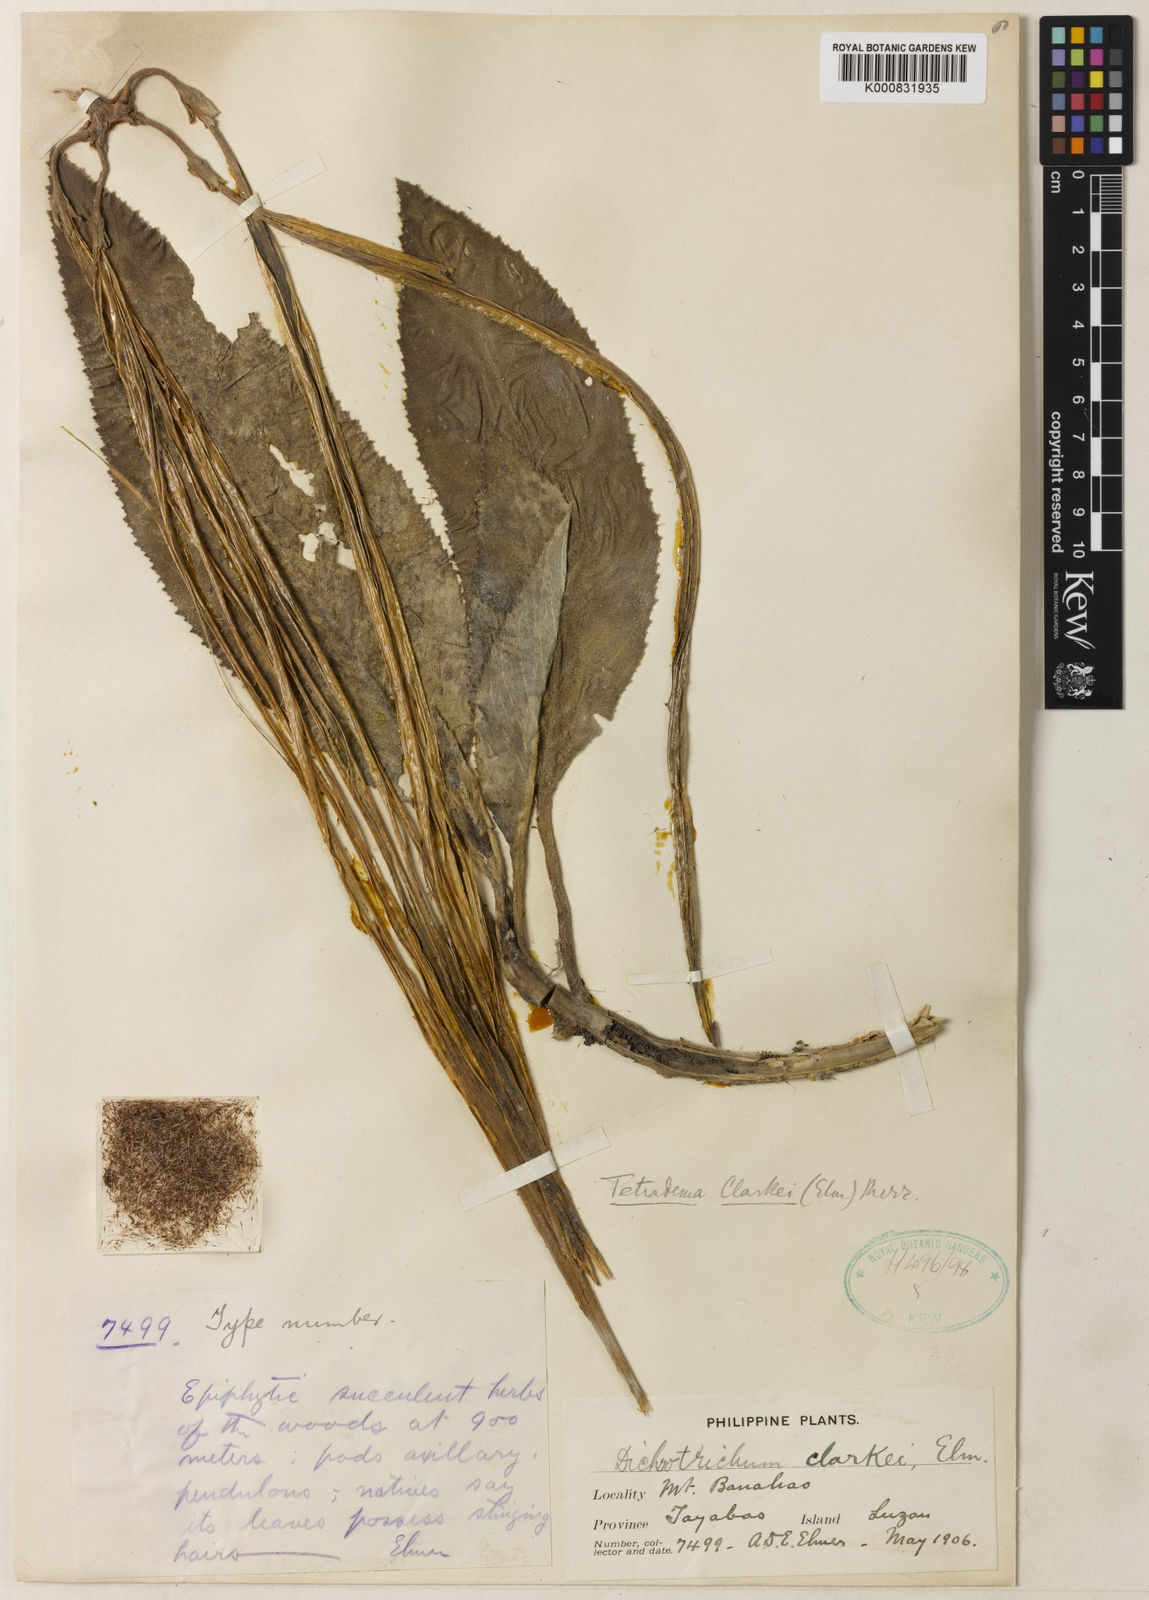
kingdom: Plantae
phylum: Tracheophyta
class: Magnoliopsida
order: Lamiales
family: Gesneriaceae
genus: Agalmyla
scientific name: Agalmyla clarkei
